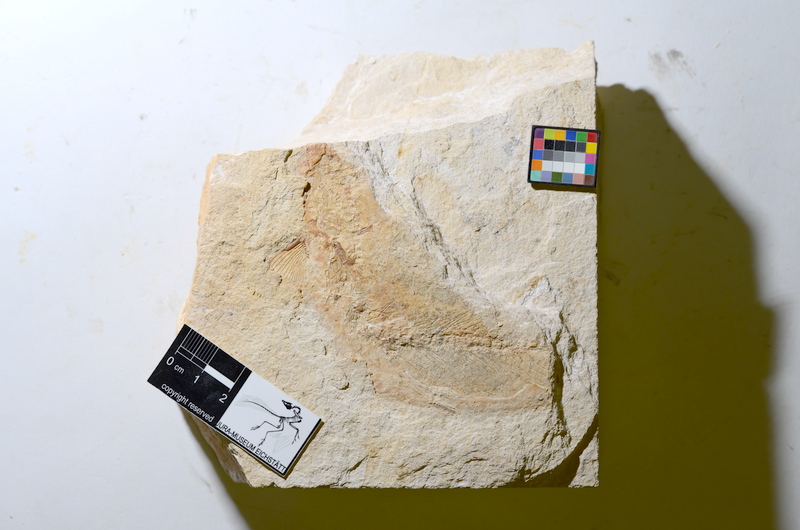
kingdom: Animalia
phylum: Chordata
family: Ascalaboidae
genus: Tharsis
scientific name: Tharsis dubius
